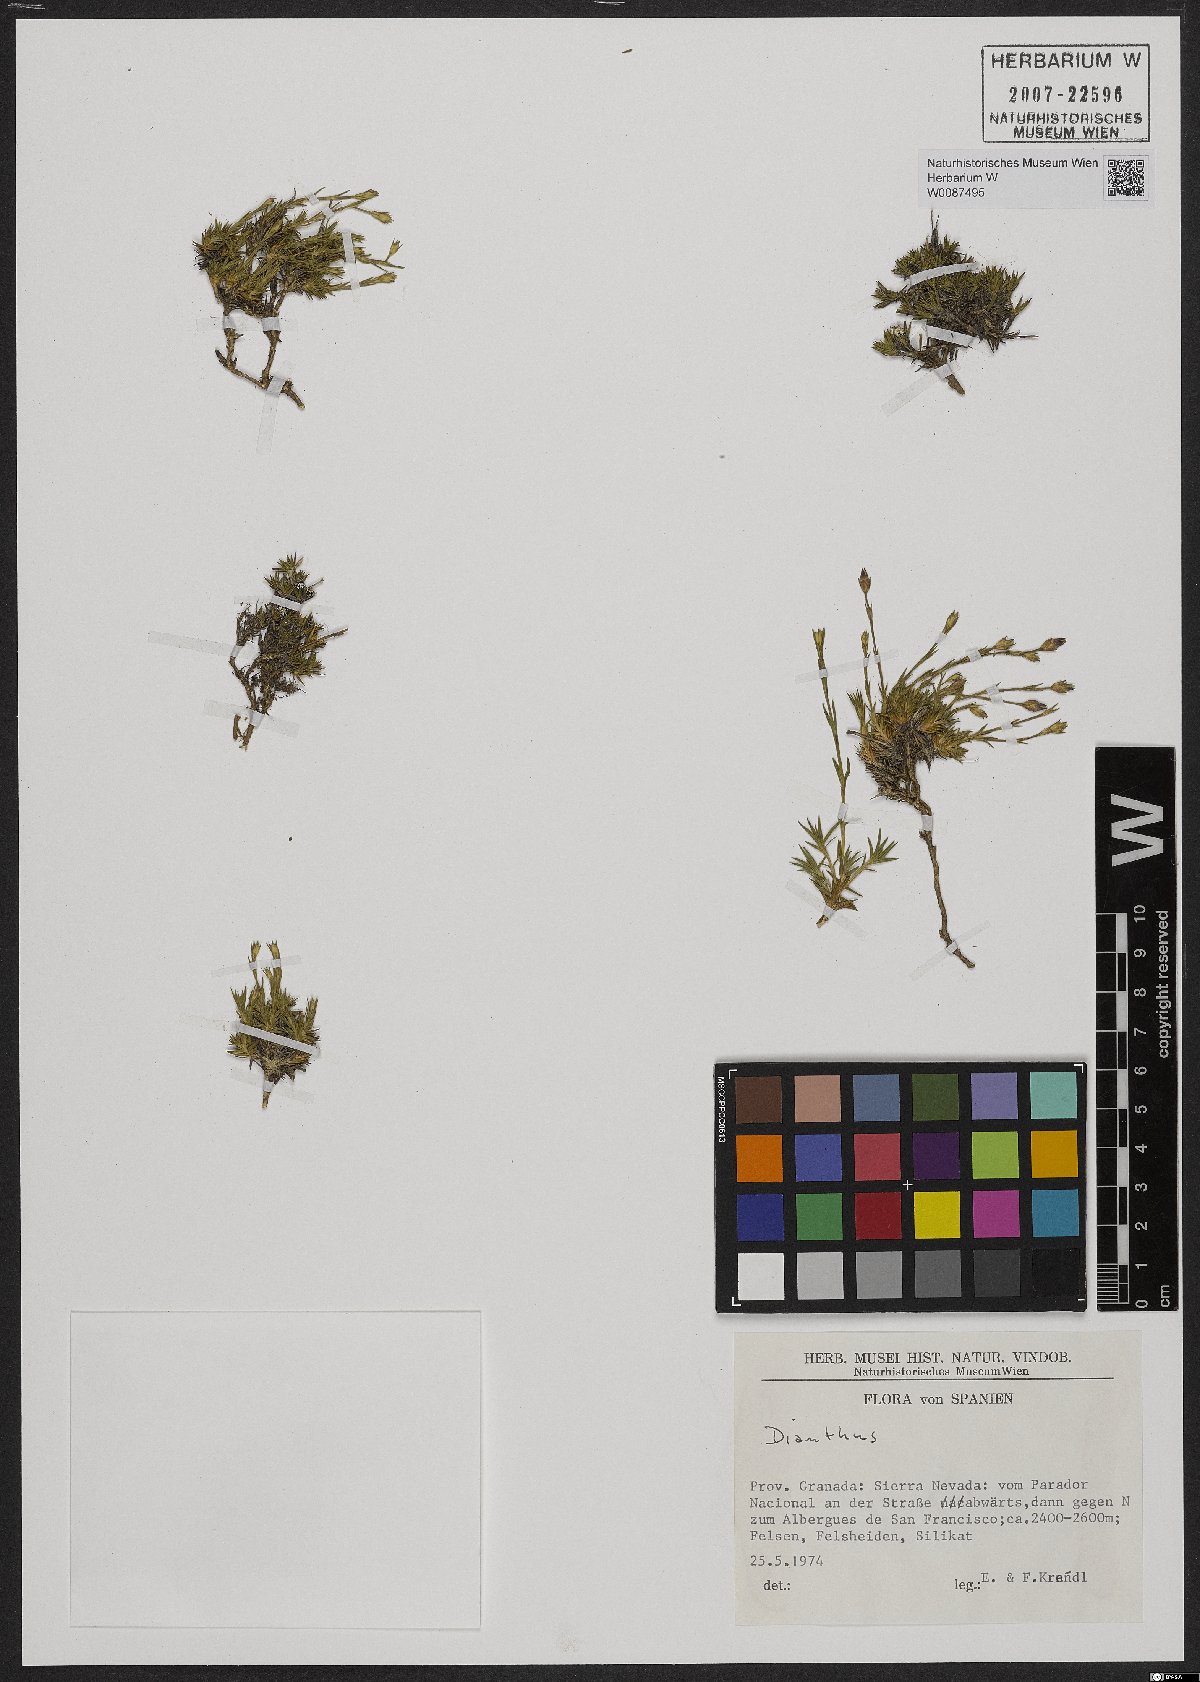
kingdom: Plantae
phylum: Tracheophyta
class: Magnoliopsida
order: Caryophyllales
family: Caryophyllaceae
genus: Dianthus
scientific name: Dianthus
